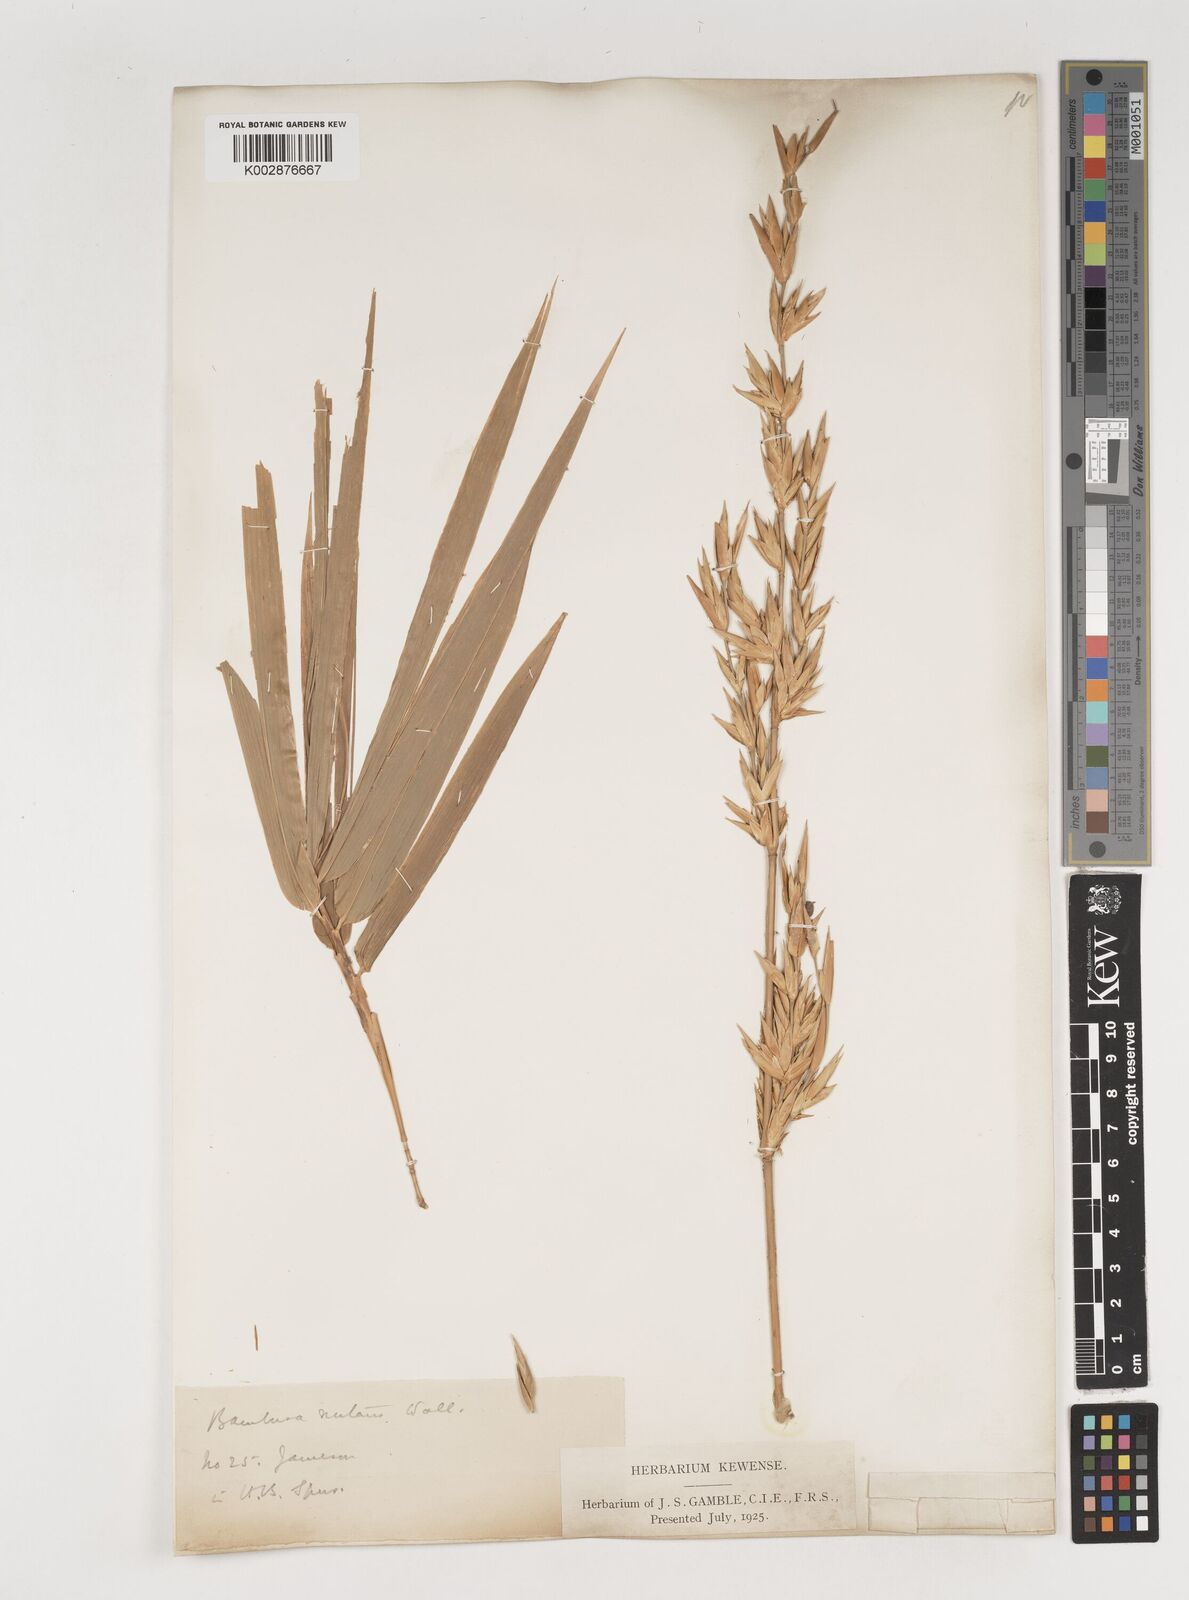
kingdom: Plantae
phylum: Tracheophyta
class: Liliopsida
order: Poales
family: Poaceae
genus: Bambusa
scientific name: Bambusa nutans
